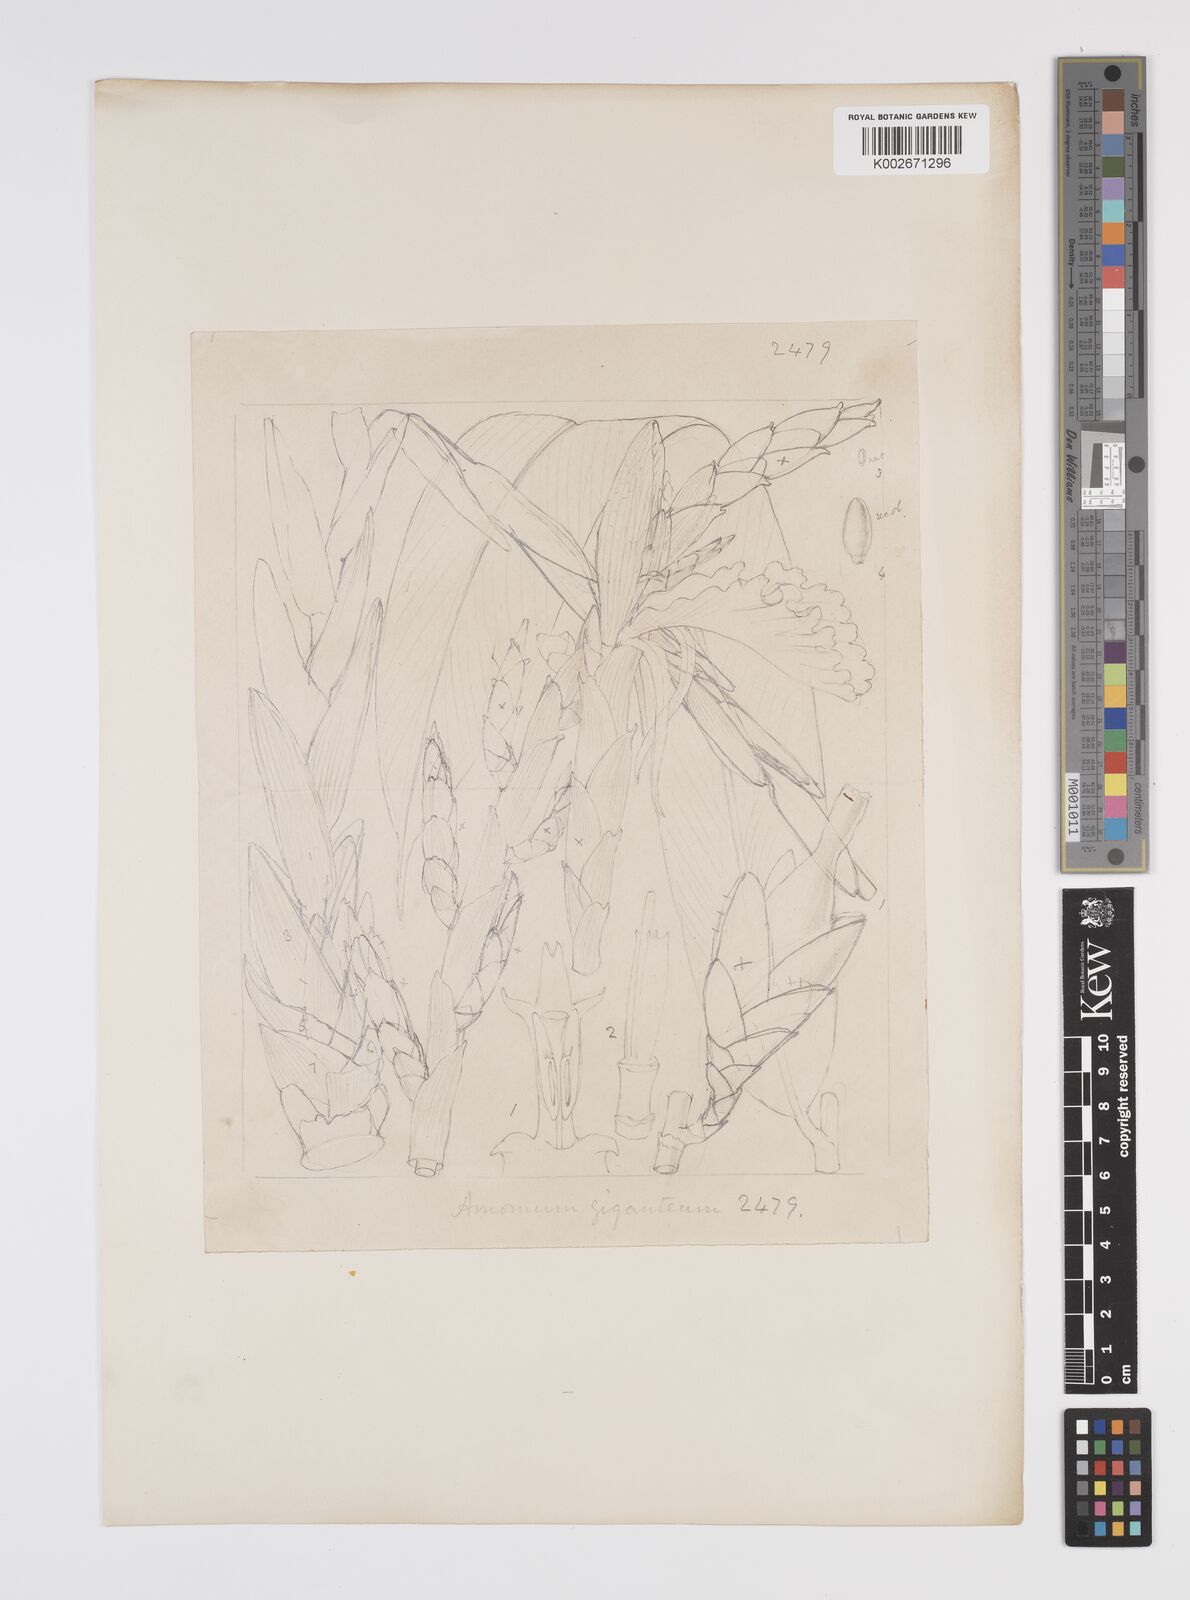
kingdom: Plantae
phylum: Tracheophyta
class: Liliopsida
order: Zingiberales
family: Zingiberaceae
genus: Aframomum
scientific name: Aframomum giganteum
